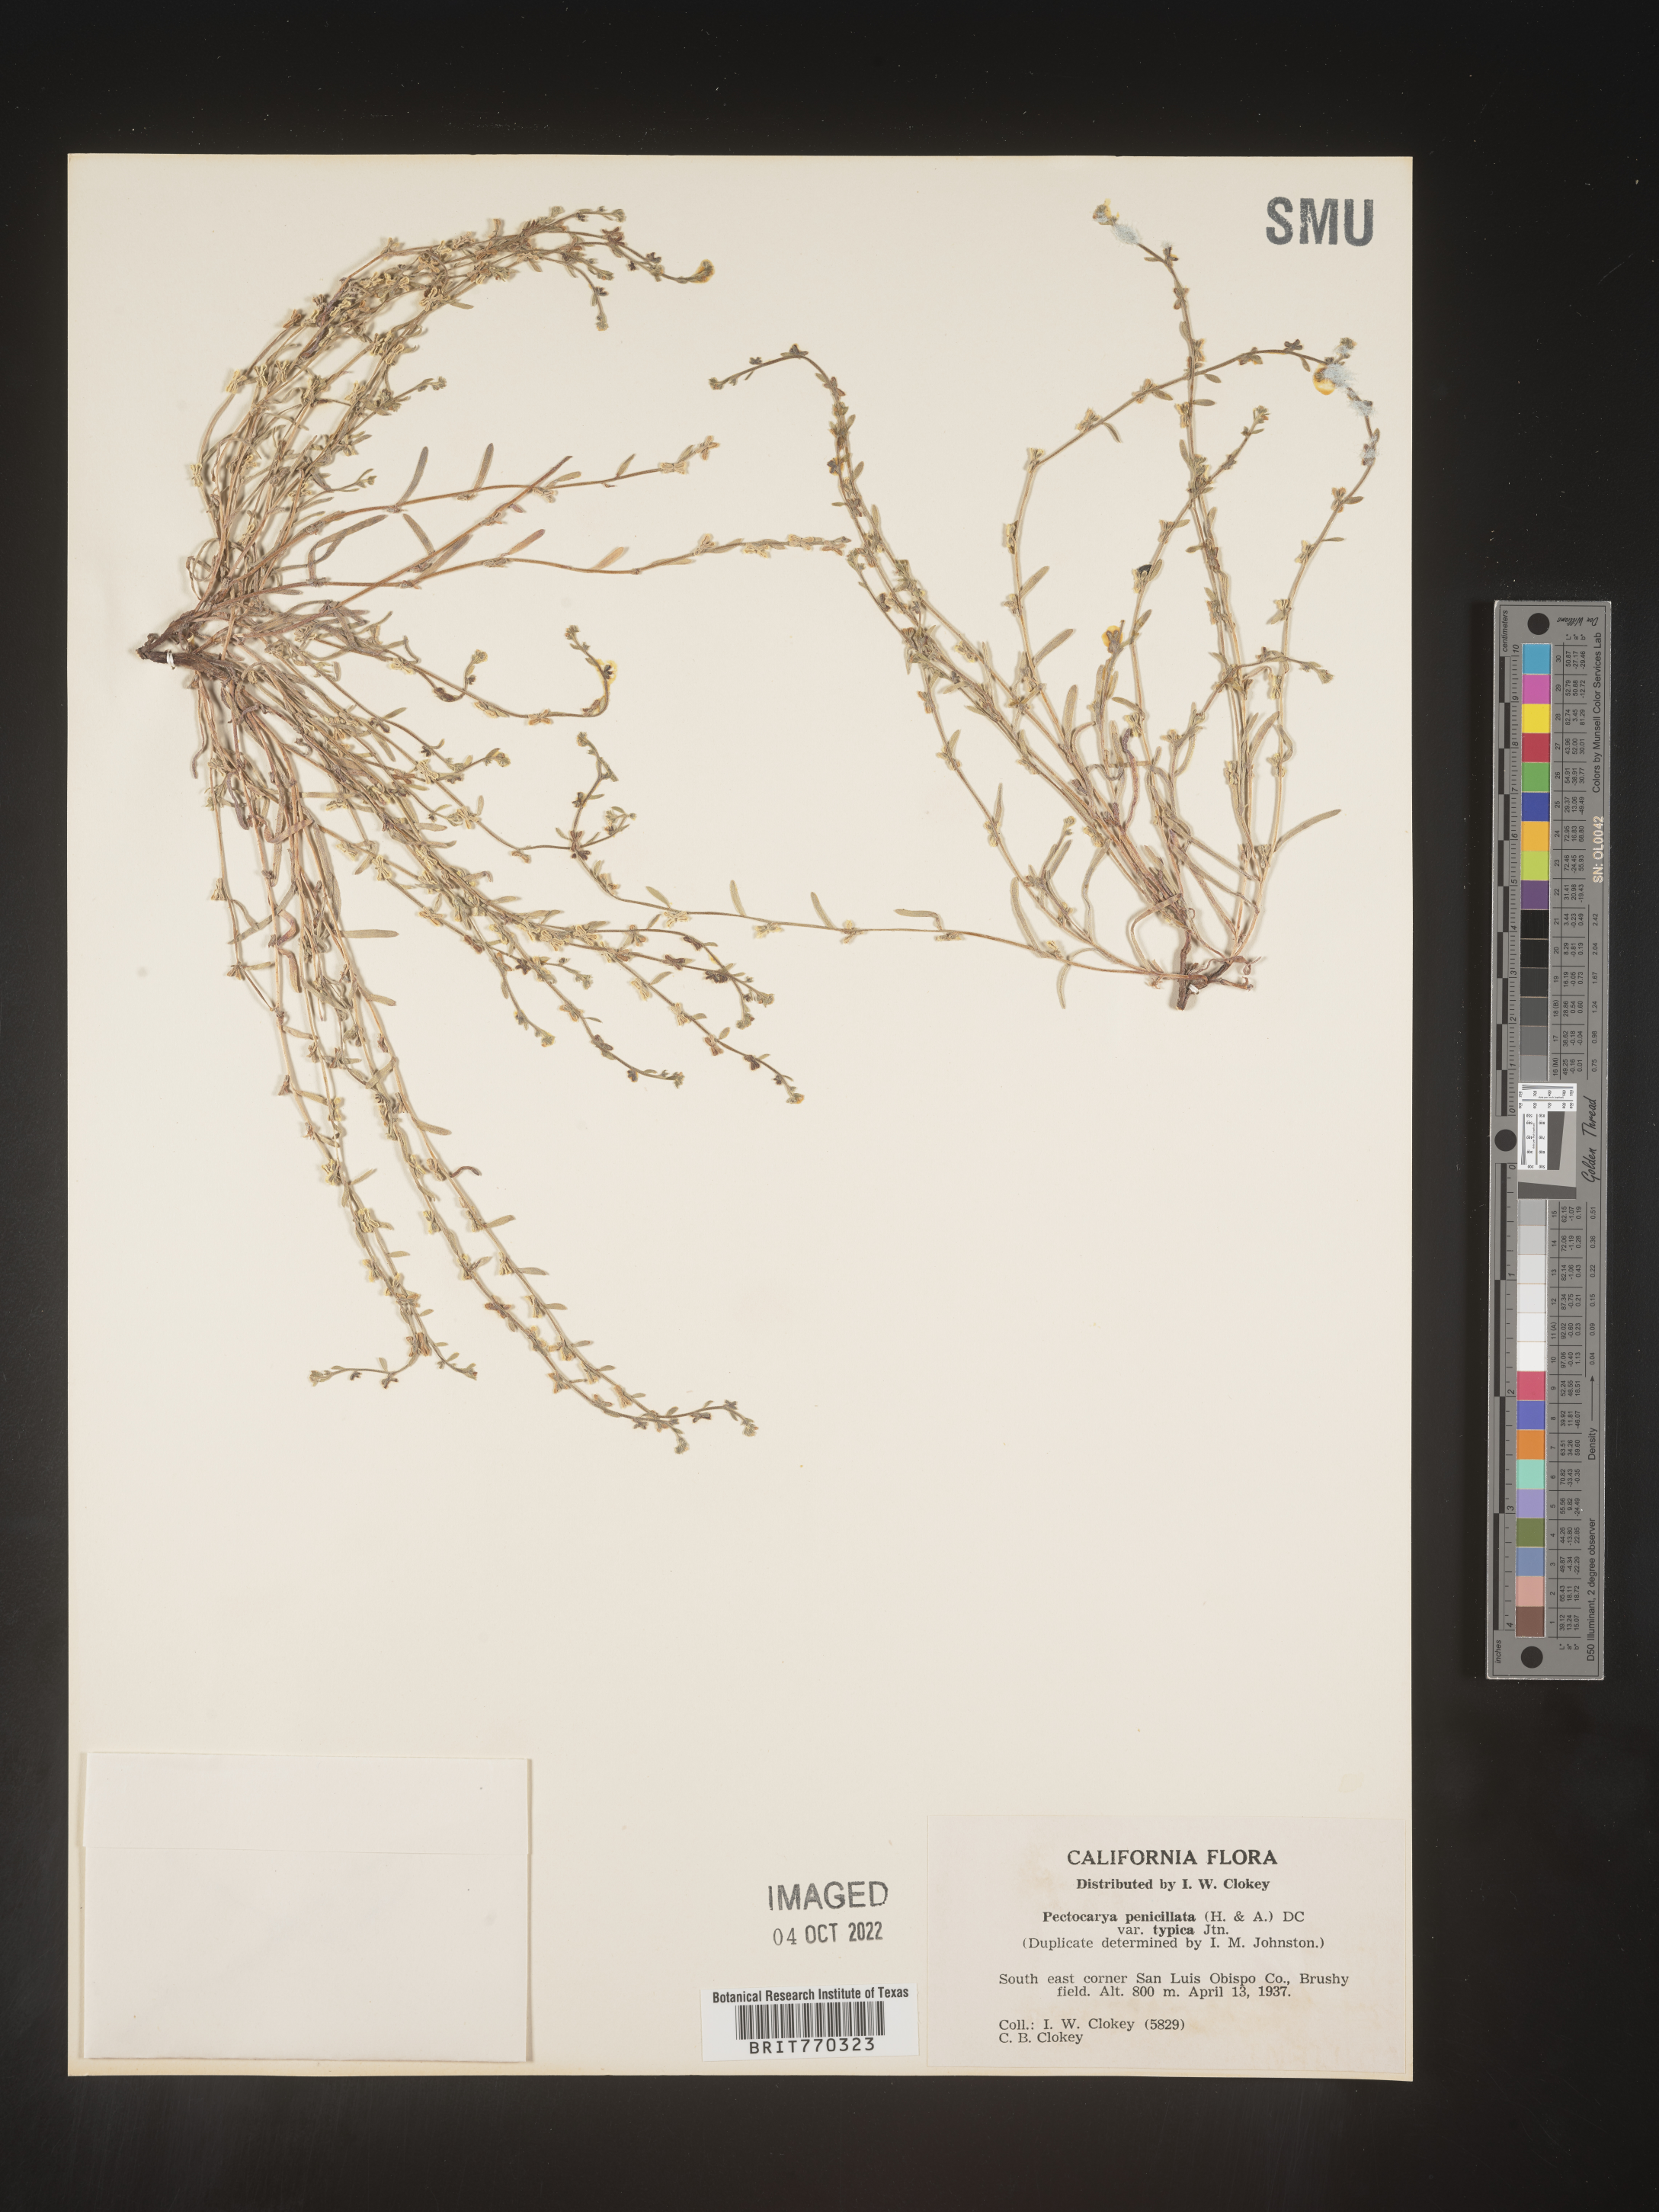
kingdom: Plantae
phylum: Tracheophyta
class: Magnoliopsida
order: Boraginales
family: Boraginaceae
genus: Pectocarya
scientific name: Pectocarya
